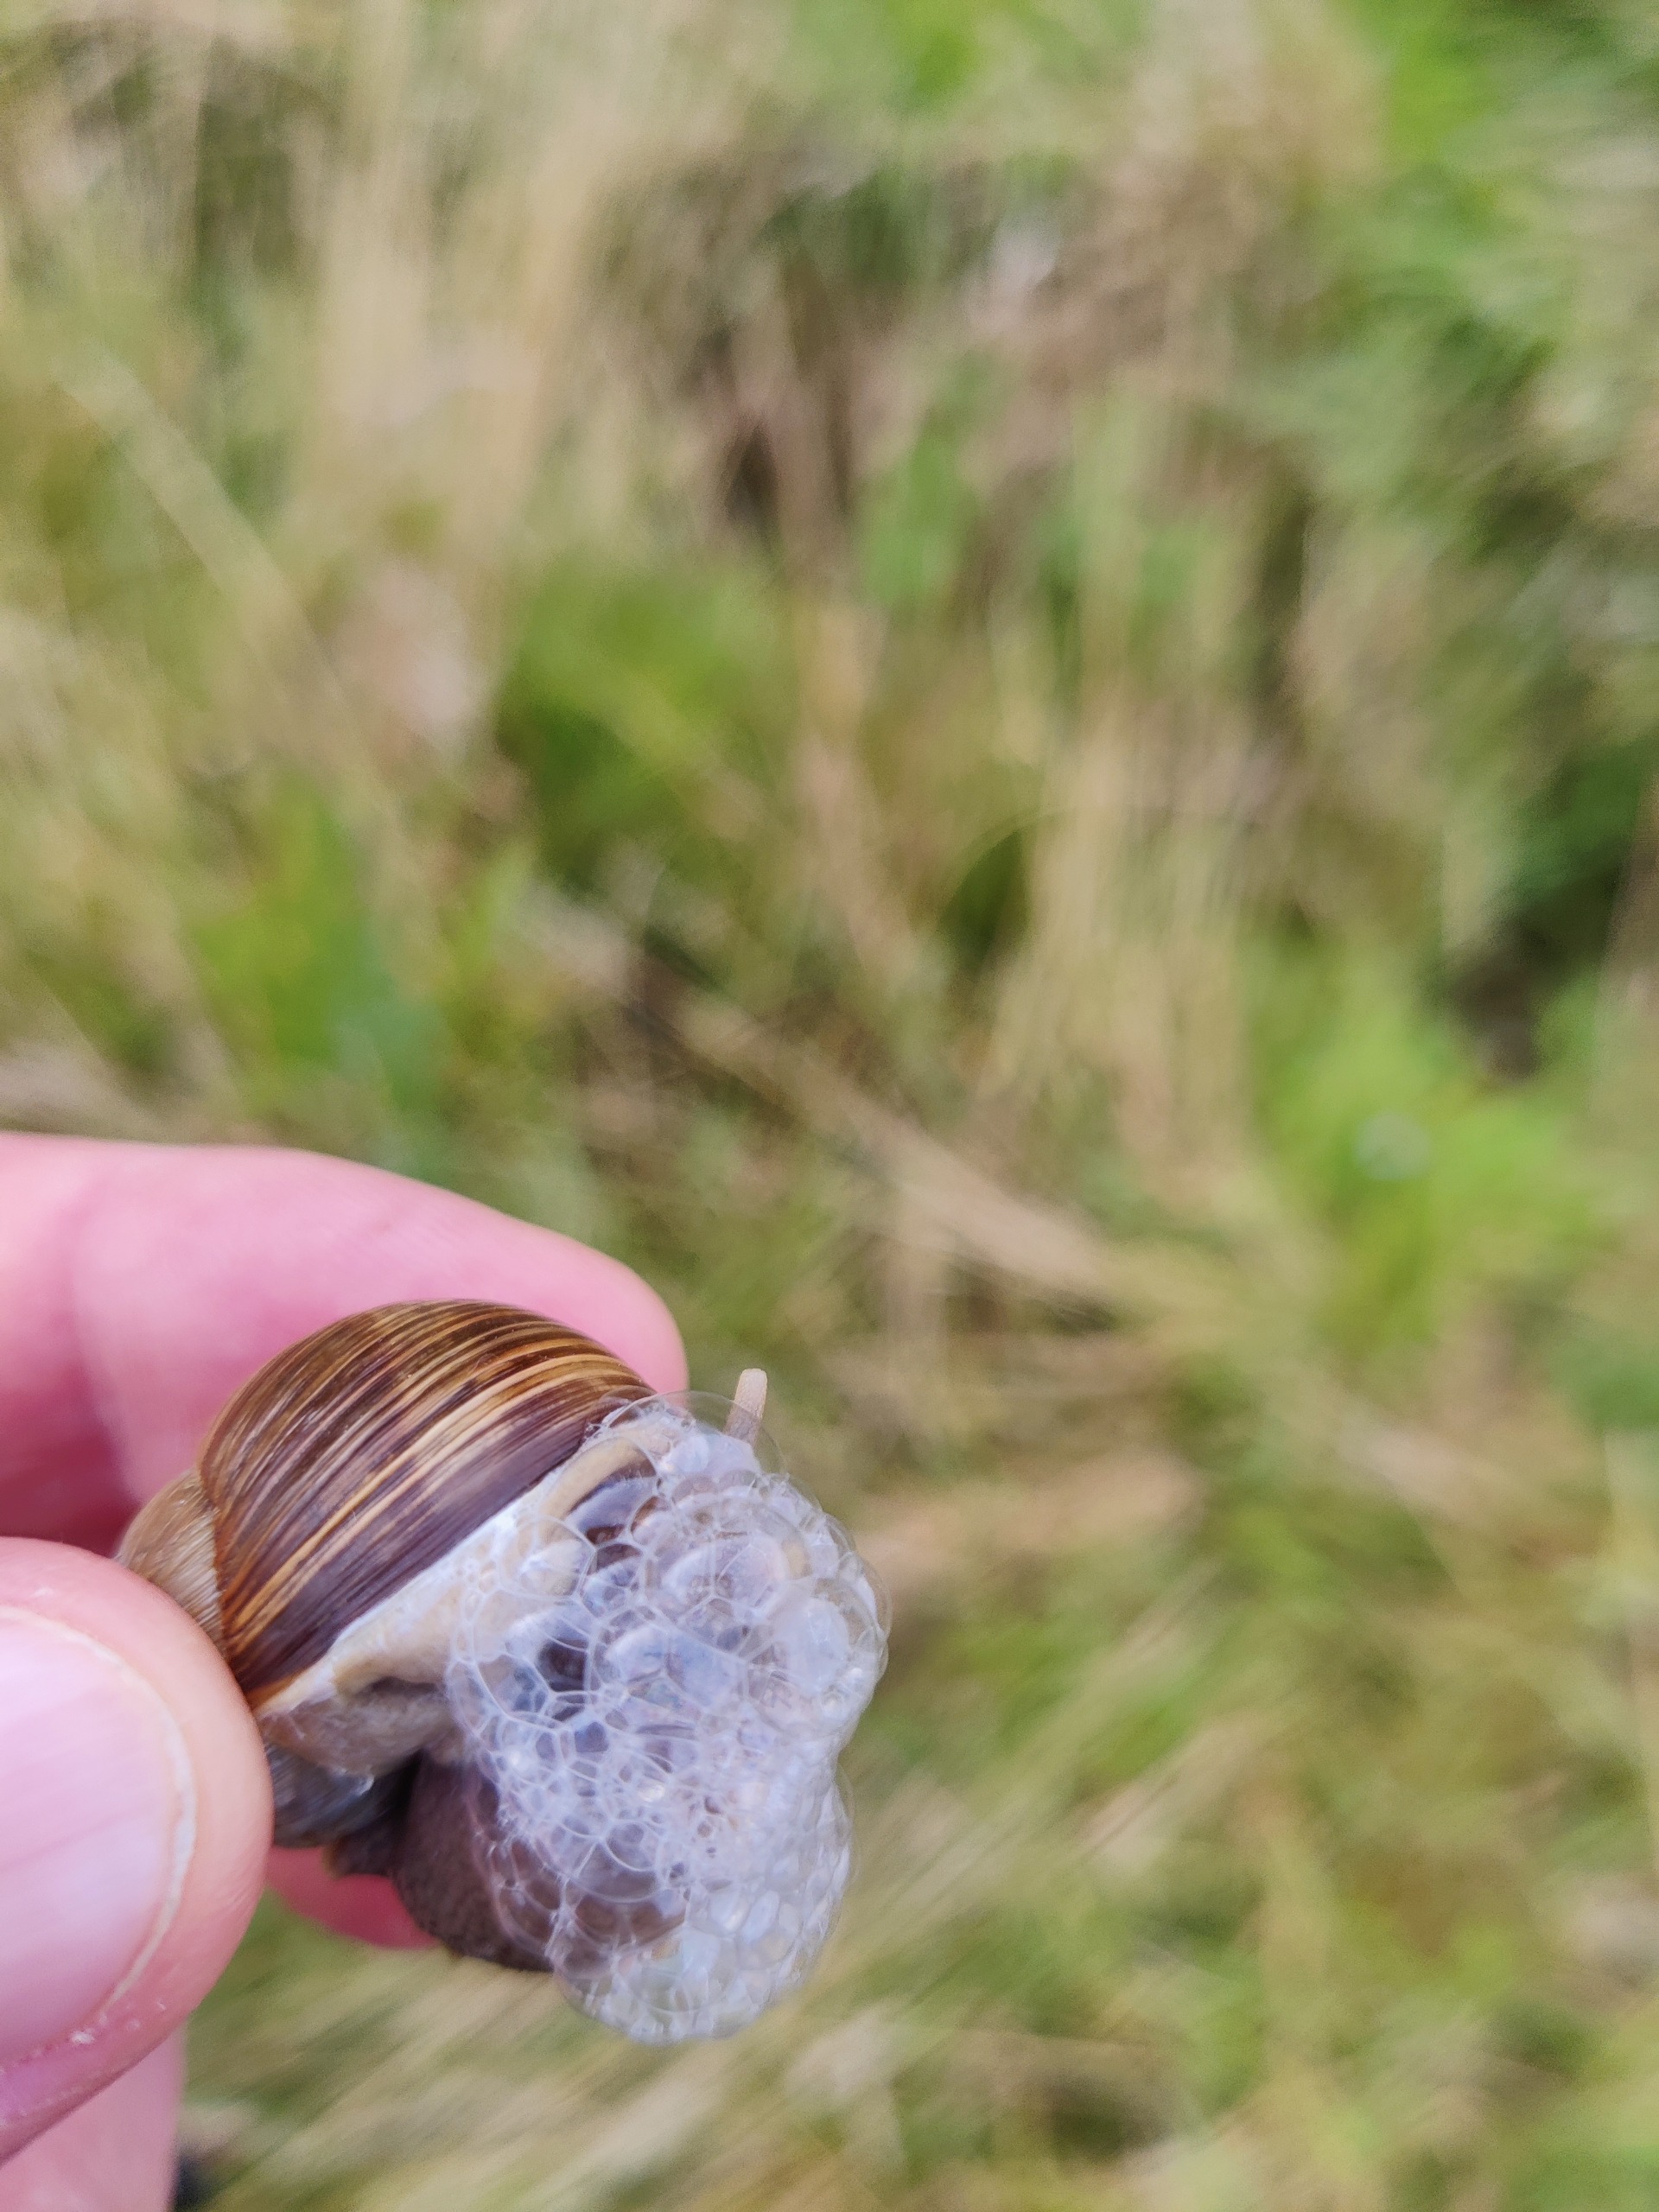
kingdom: Animalia
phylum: Mollusca
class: Gastropoda
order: Stylommatophora
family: Helicidae
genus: Helix
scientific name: Helix pomatia
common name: Vinbjergsnegl
